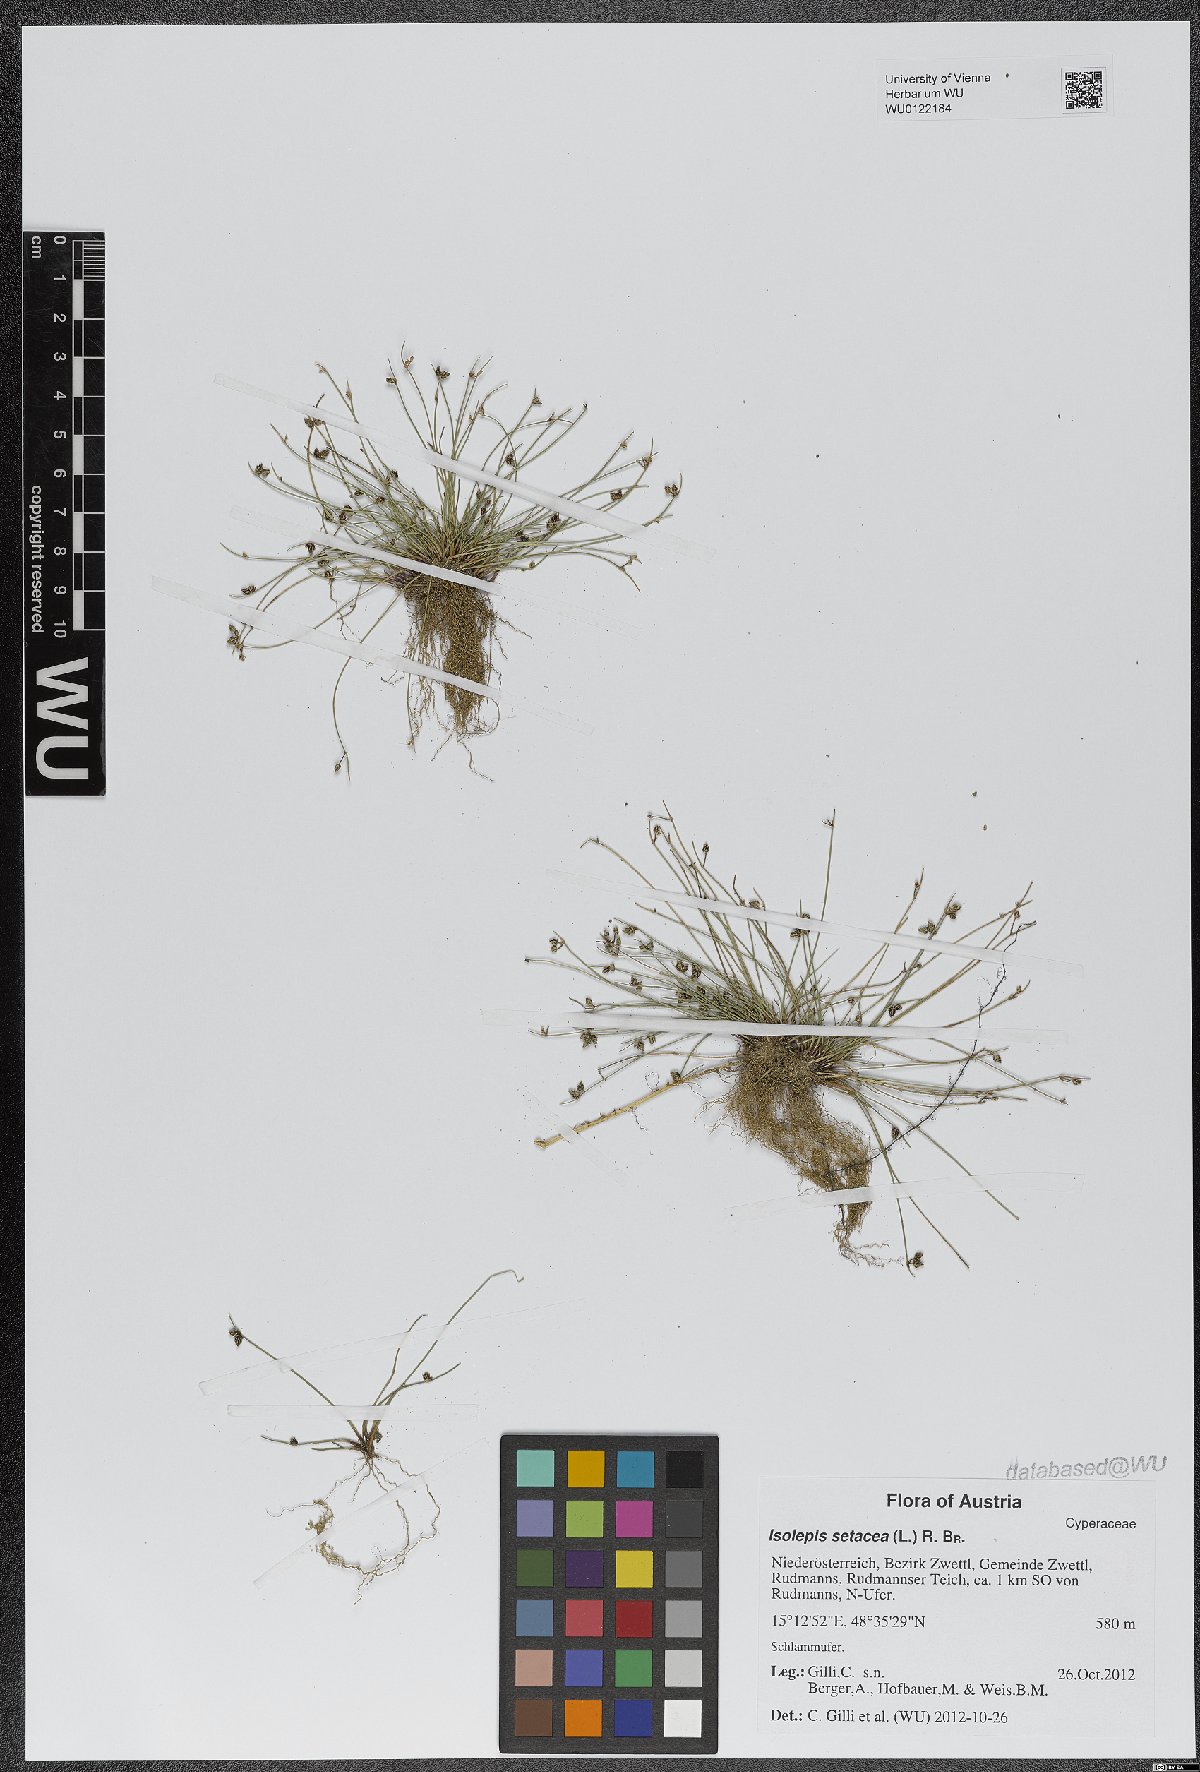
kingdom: Plantae
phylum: Tracheophyta
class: Liliopsida
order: Poales
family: Cyperaceae
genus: Isolepis
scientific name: Isolepis setacea
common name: Bristle club-rush
